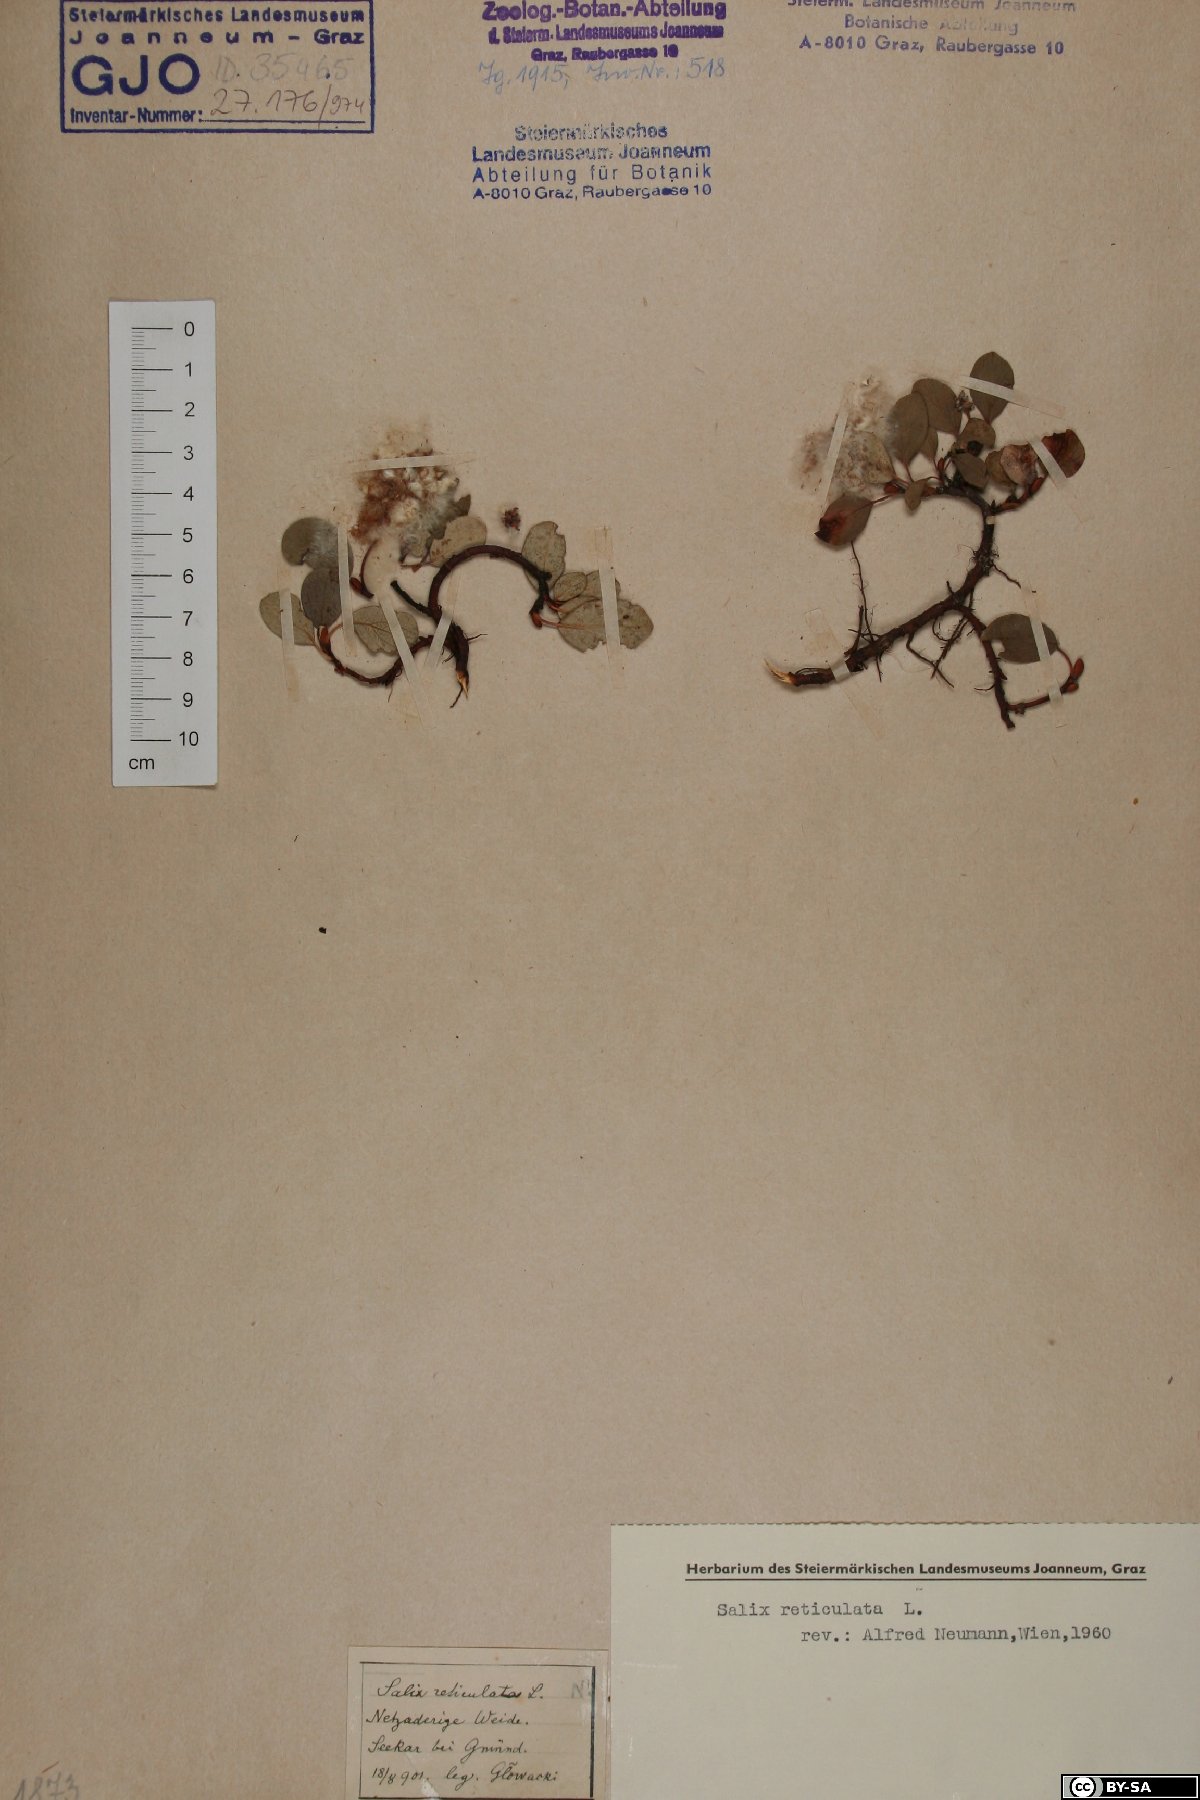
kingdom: Plantae
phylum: Tracheophyta
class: Magnoliopsida
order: Malpighiales
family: Salicaceae
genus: Salix
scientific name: Salix reticulata
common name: Net-leaved willow
